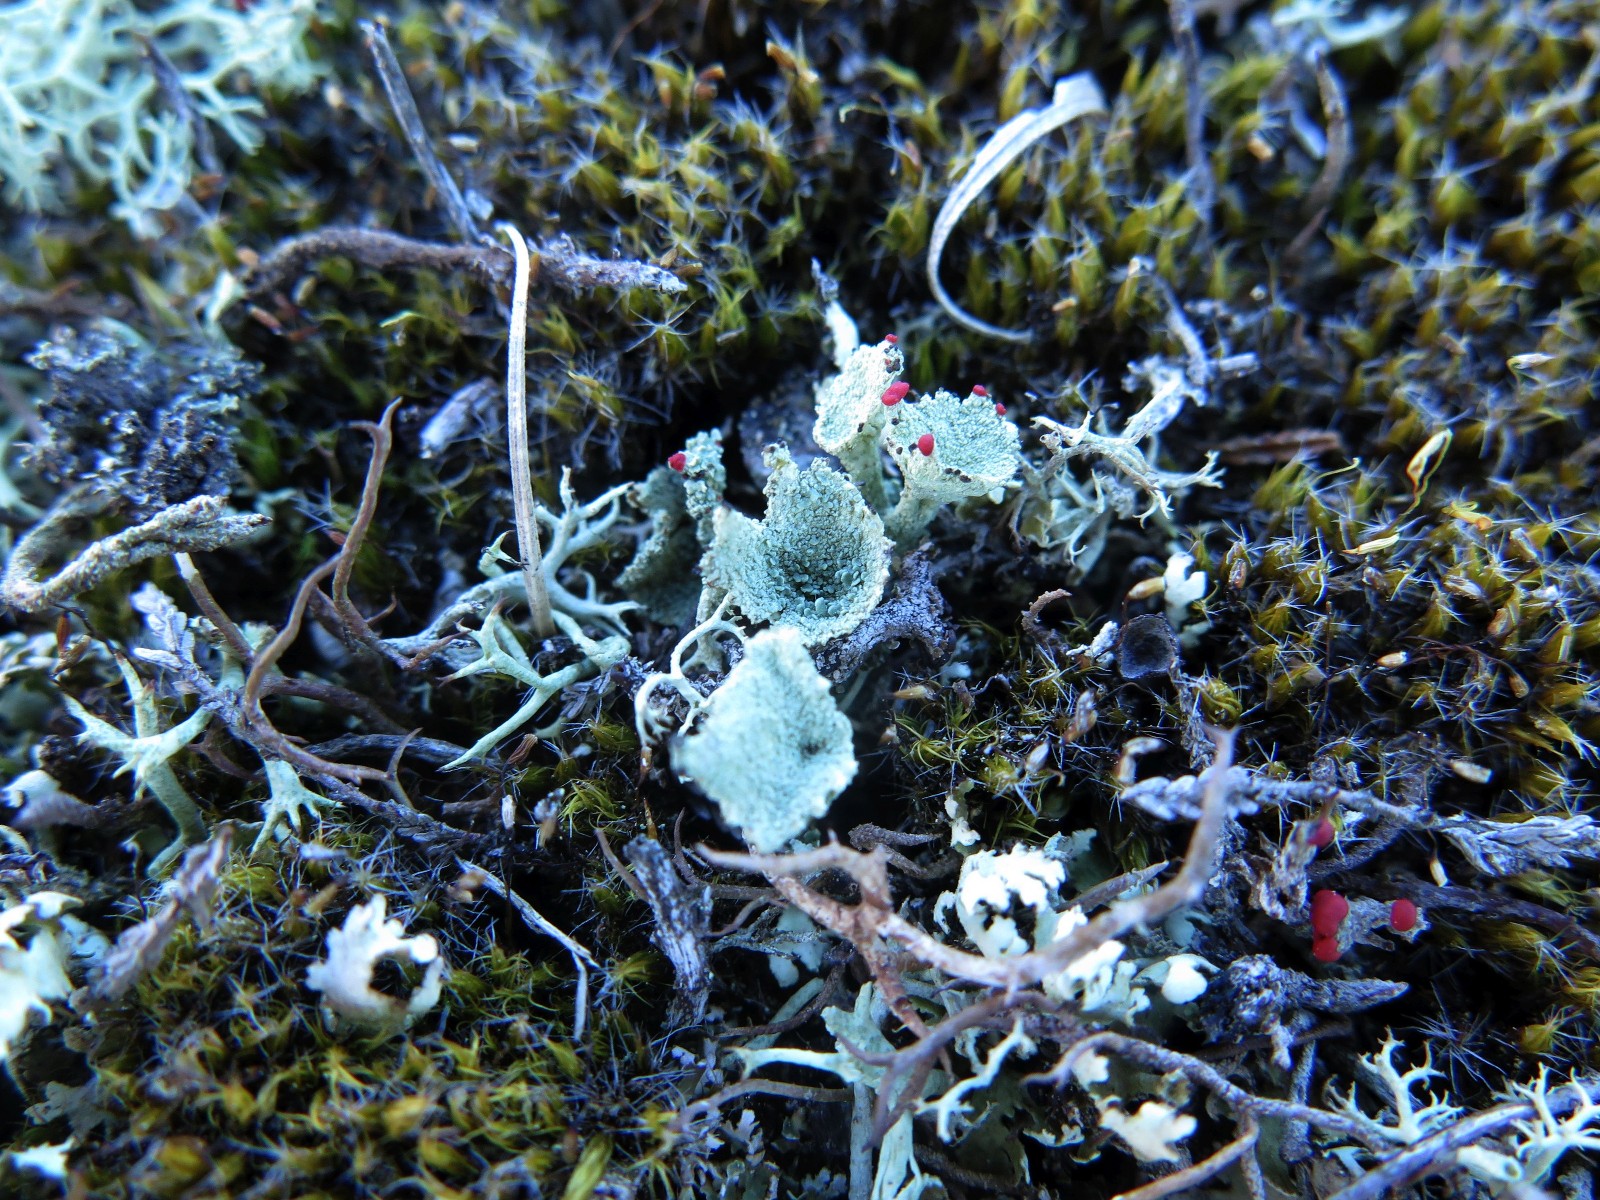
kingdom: Fungi
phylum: Ascomycota
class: Lecanoromycetes
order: Lecanorales
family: Cladoniaceae
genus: Cladonia
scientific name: Cladonia diversa
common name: rød bægerlav
